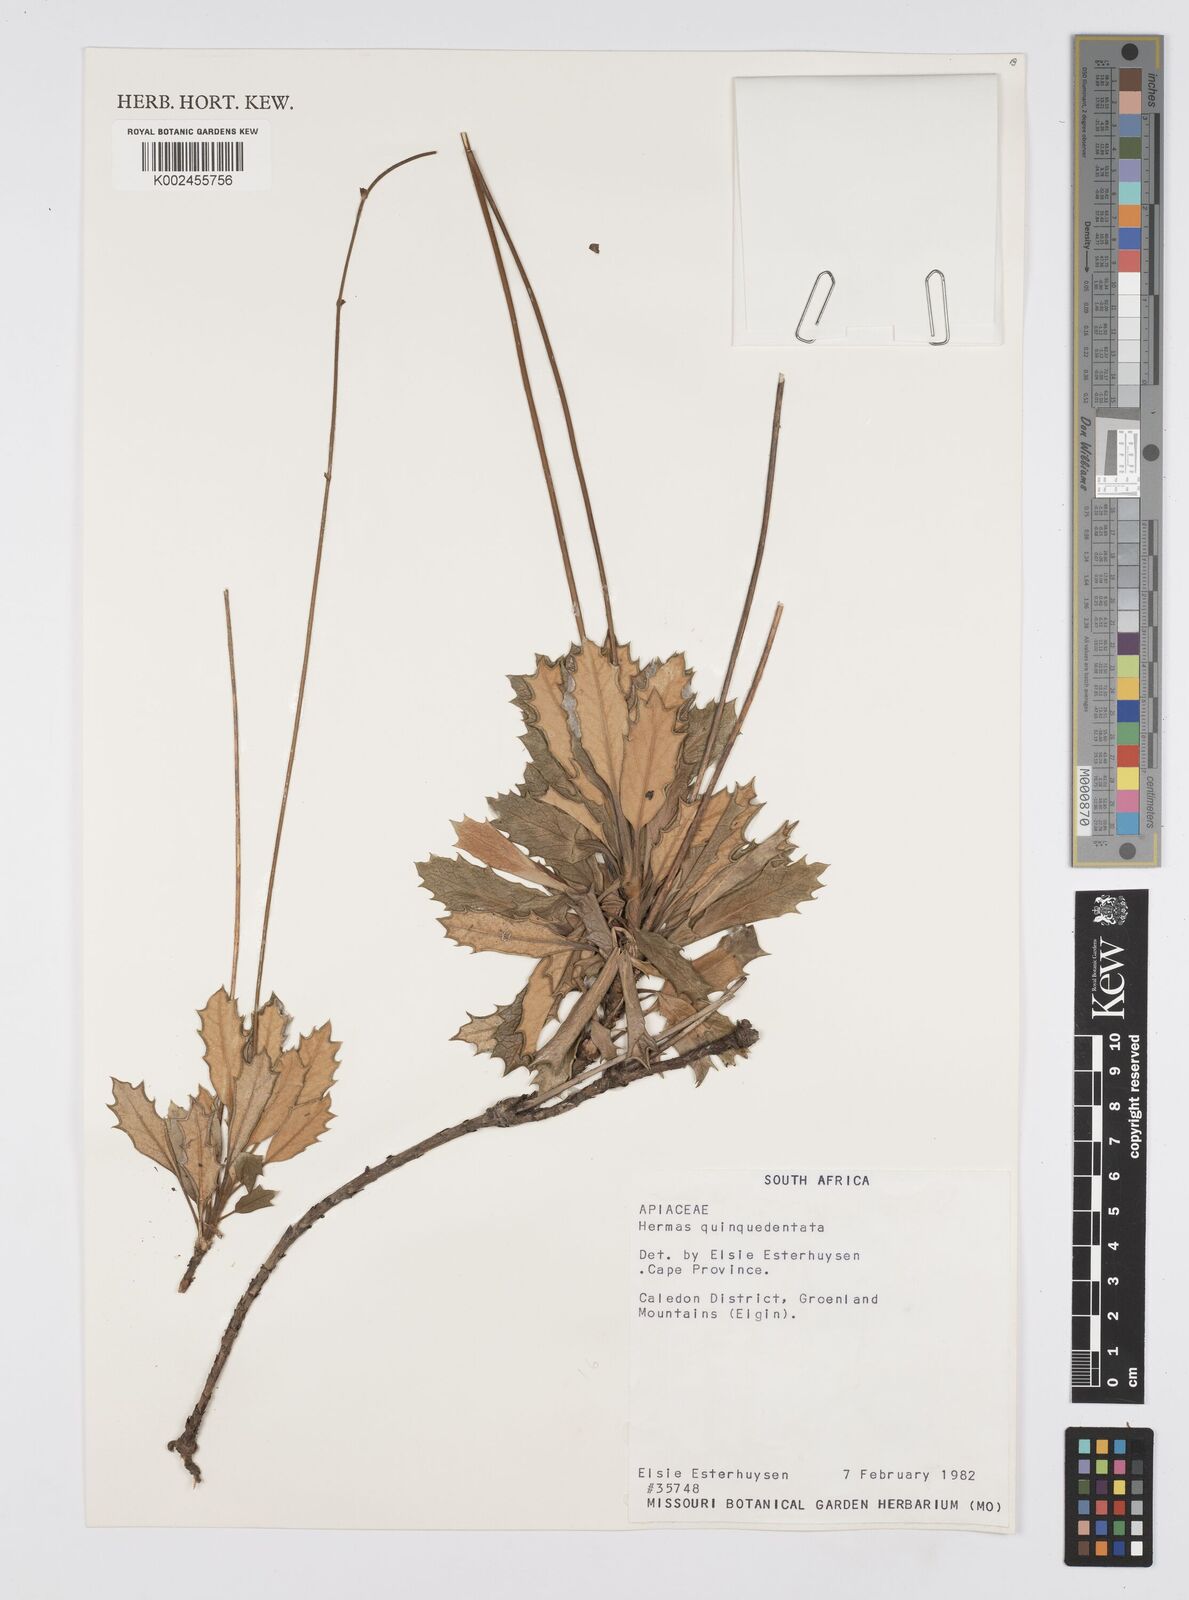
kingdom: Plantae
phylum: Tracheophyta
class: Magnoliopsida
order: Apiales
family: Apiaceae
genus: Hermas
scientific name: Hermas quinquedentata
